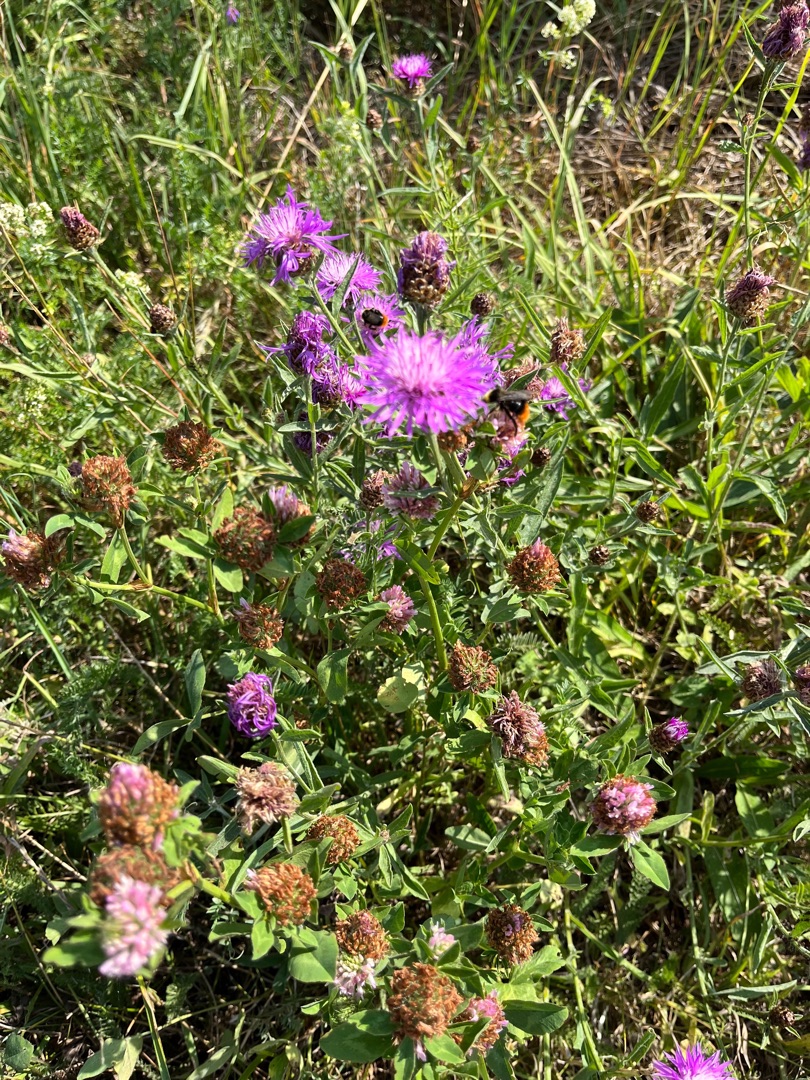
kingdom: Plantae
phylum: Tracheophyta
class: Magnoliopsida
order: Asterales
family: Asteraceae
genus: Centaurea
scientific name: Centaurea jacea
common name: Almindelig knopurt
